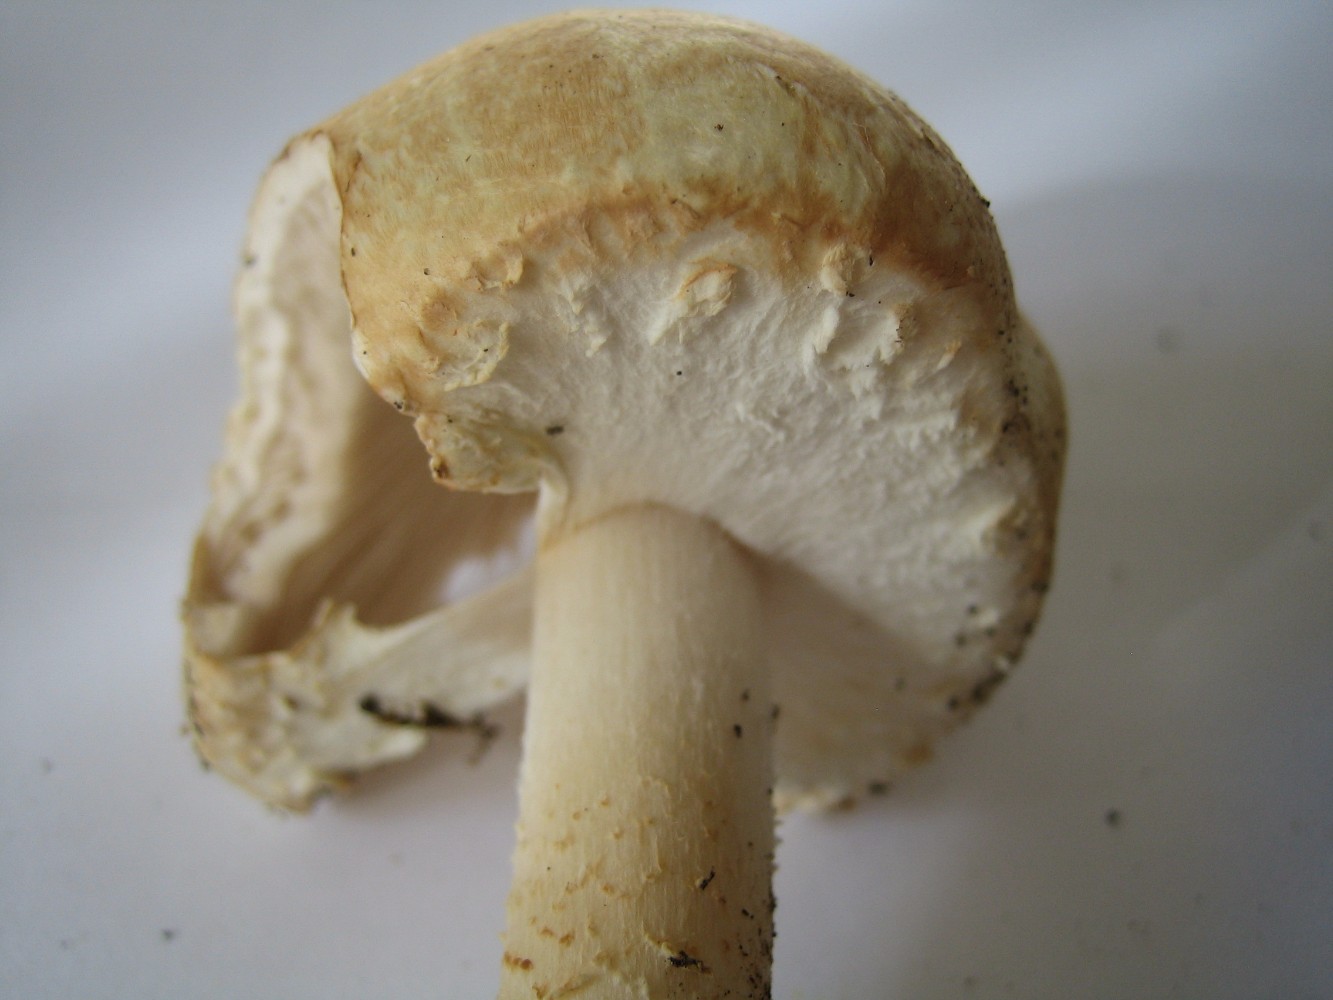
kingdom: Fungi
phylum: Basidiomycota
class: Agaricomycetes
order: Agaricales
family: Agaricaceae
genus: Agaricus
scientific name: Agaricus arvensis
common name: ager-champignon
